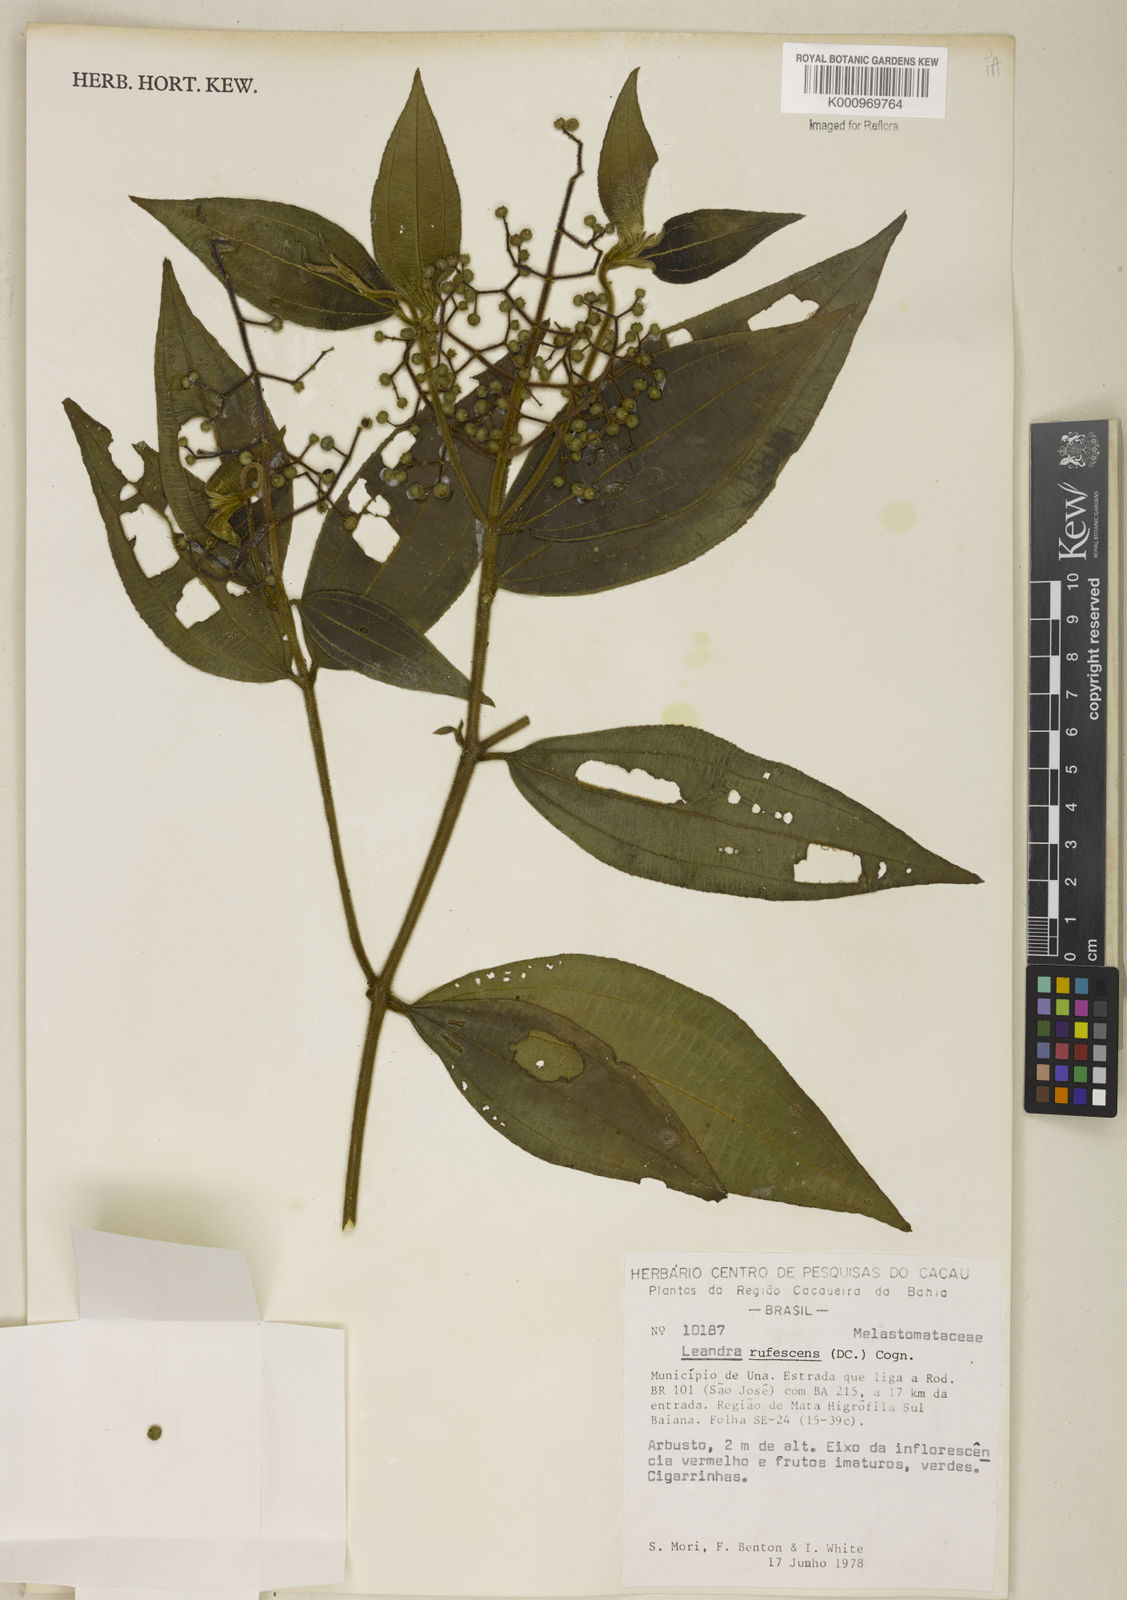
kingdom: Plantae
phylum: Tracheophyta
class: Magnoliopsida
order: Myrtales
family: Melastomataceae
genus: Miconia
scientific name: Miconia asperiuscula
